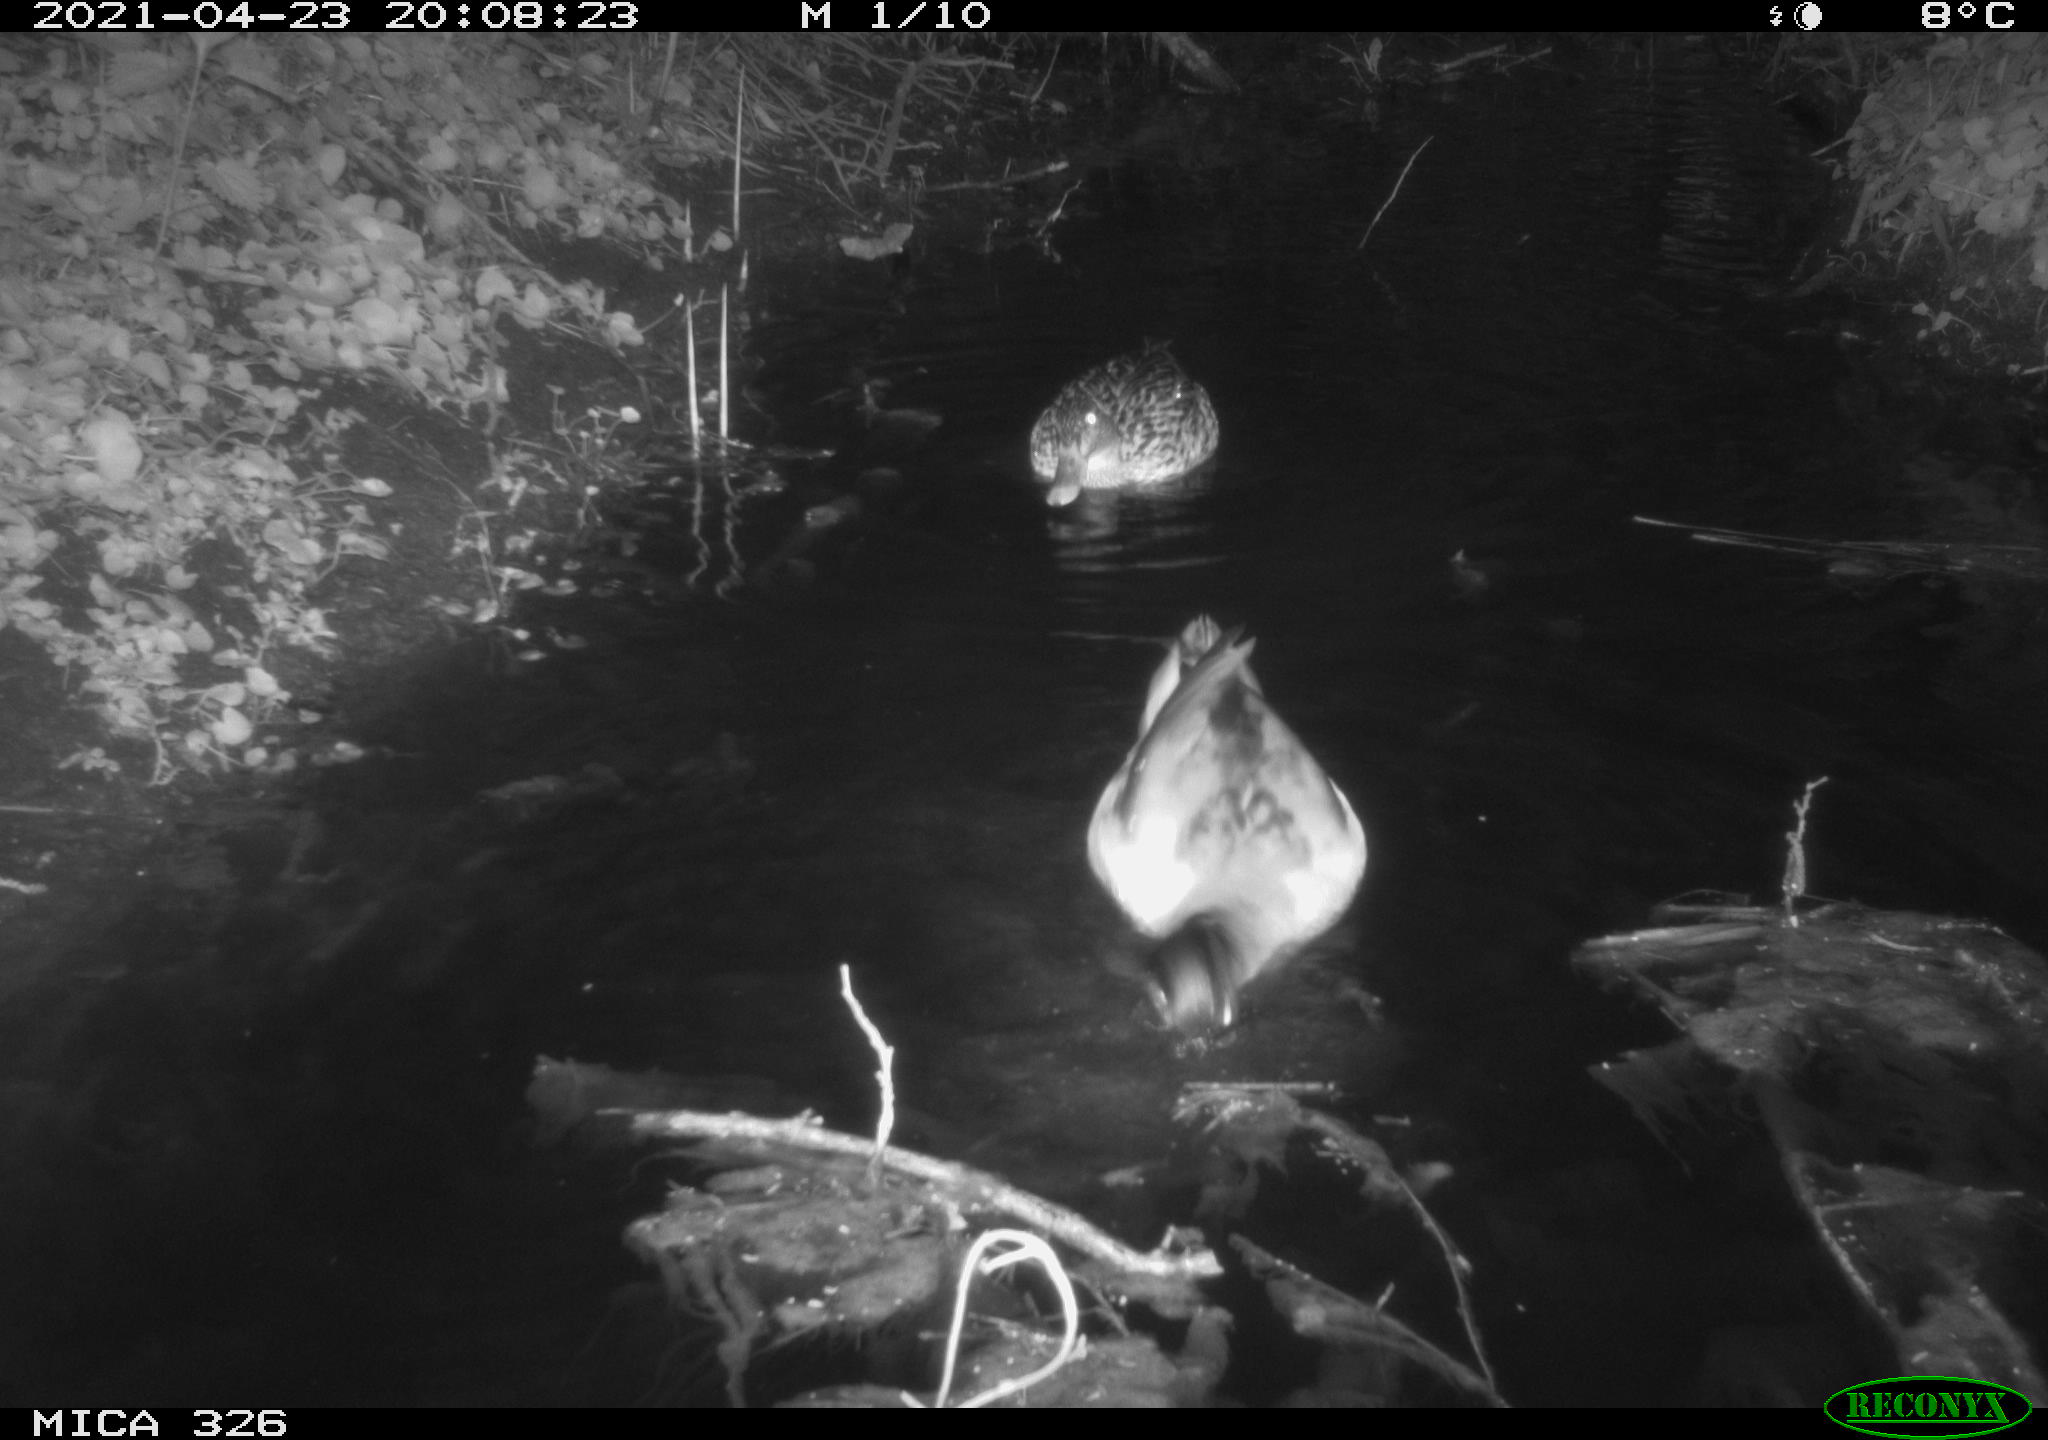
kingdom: Animalia
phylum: Chordata
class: Aves
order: Anseriformes
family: Anatidae
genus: Anas
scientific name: Anas platyrhynchos
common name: Mallard
